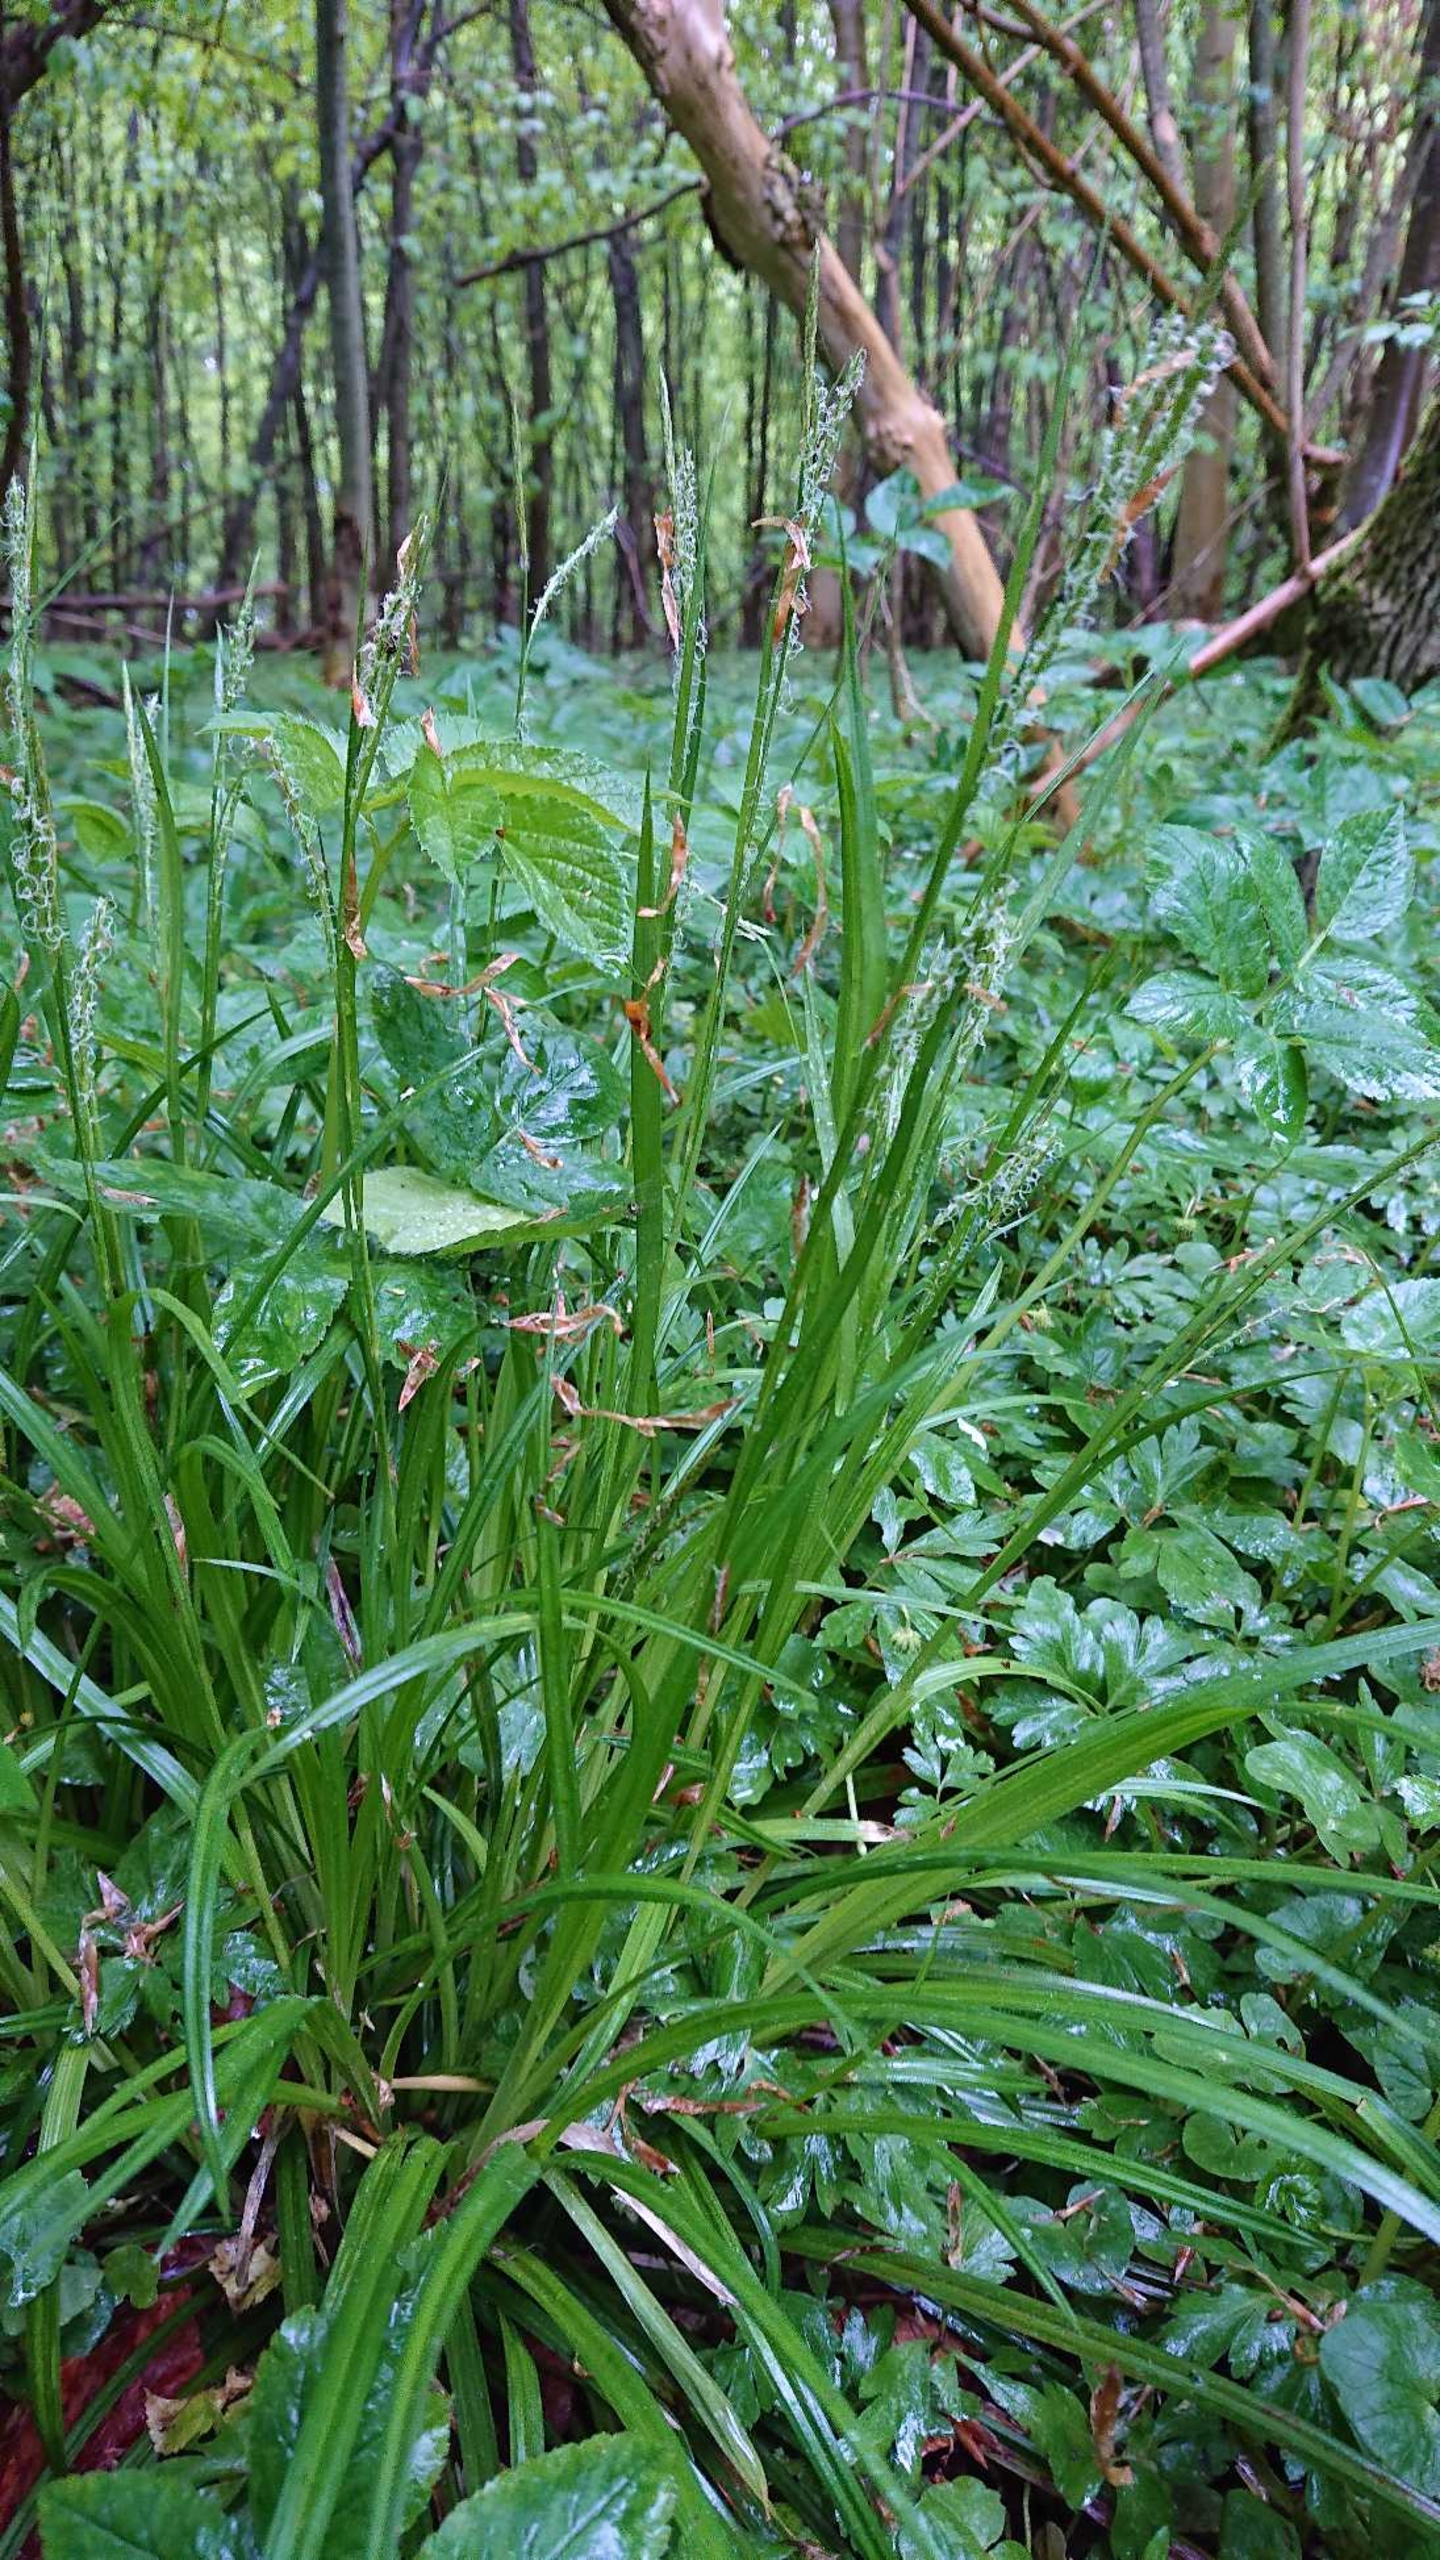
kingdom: Plantae
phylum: Tracheophyta
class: Liliopsida
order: Poales
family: Cyperaceae
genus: Carex
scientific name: Carex sylvatica
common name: Skov-star
